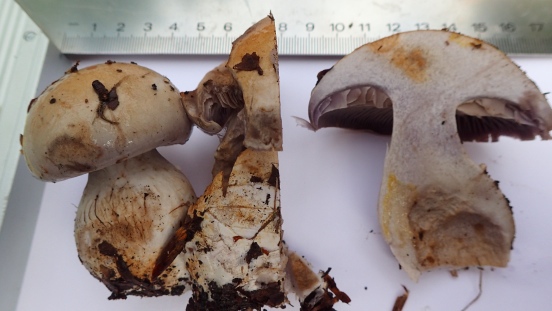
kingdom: Fungi
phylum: Basidiomycota
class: Agaricomycetes
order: Agaricales
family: Cortinariaceae
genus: Cortinarius
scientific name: Cortinarius largus
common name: violetrandet slørhat
